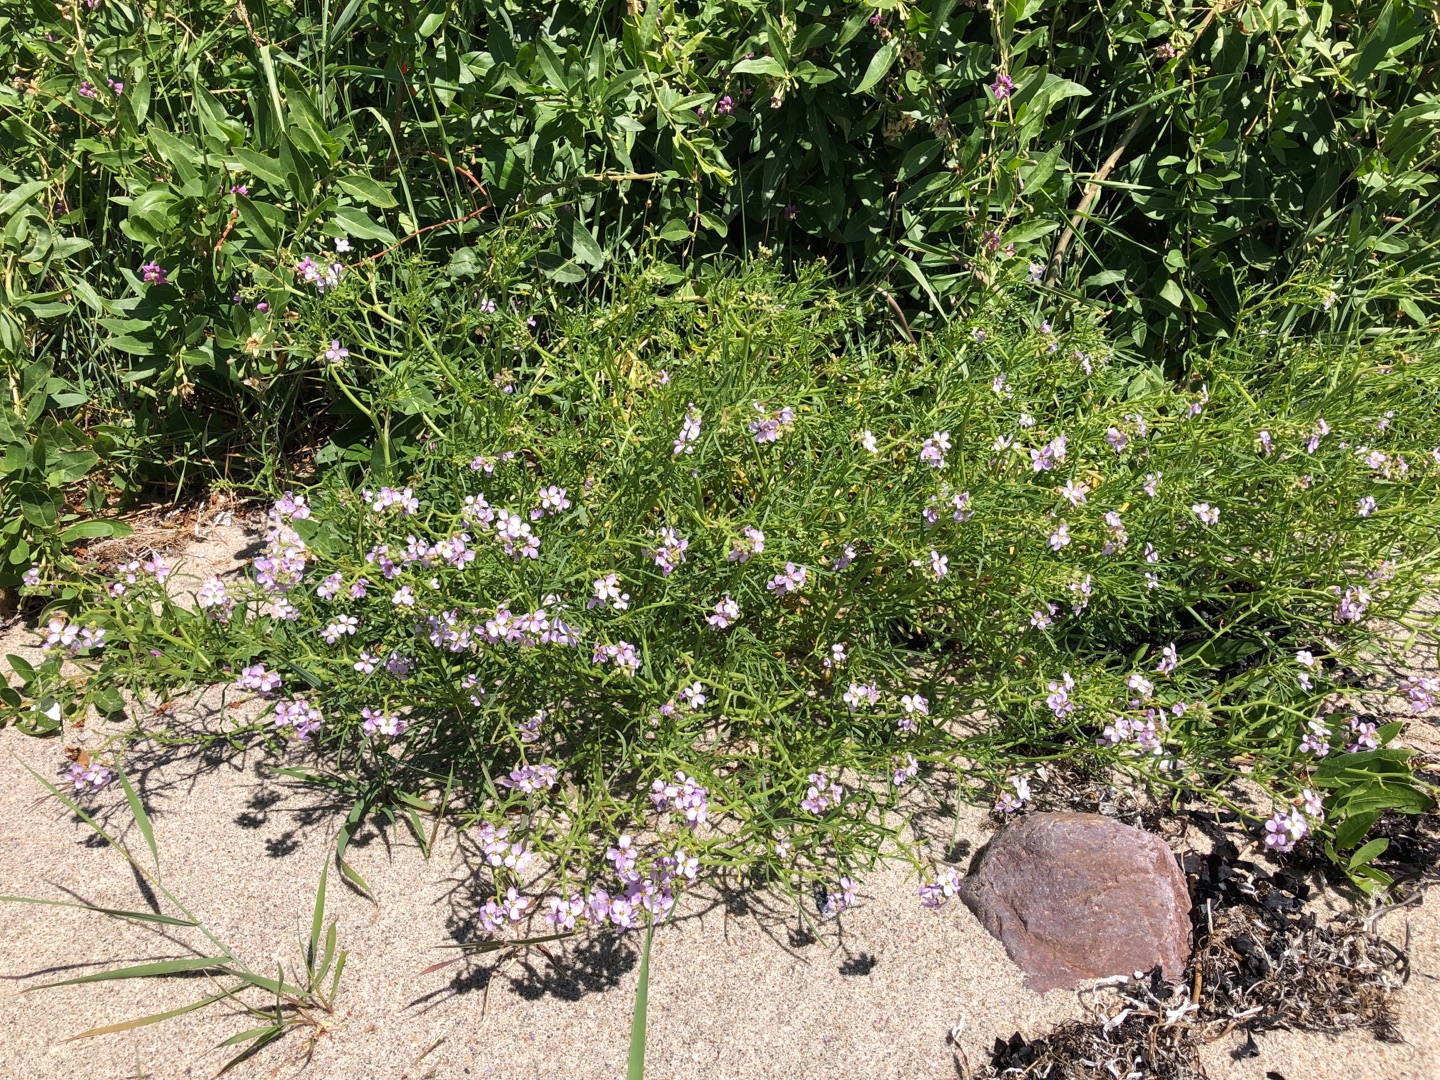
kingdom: Plantae
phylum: Tracheophyta
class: Magnoliopsida
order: Brassicales
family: Brassicaceae
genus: Cakile
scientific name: Cakile maritima
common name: Strandsennep
